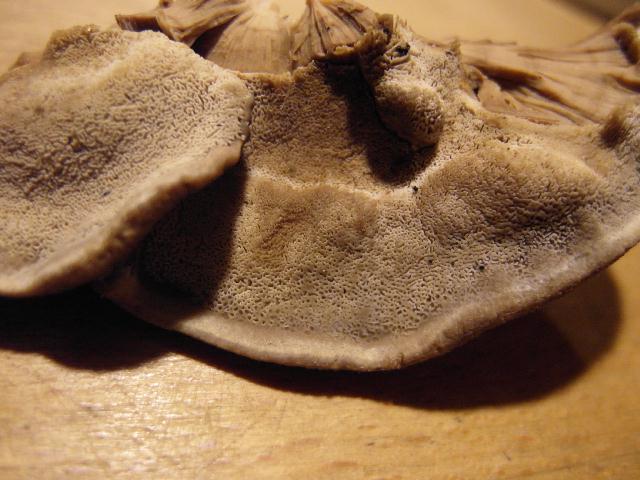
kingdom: Fungi
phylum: Basidiomycota
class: Agaricomycetes
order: Polyporales
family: Phanerochaetaceae
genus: Bjerkandera
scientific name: Bjerkandera fumosa
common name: grågul sodporesvamp
